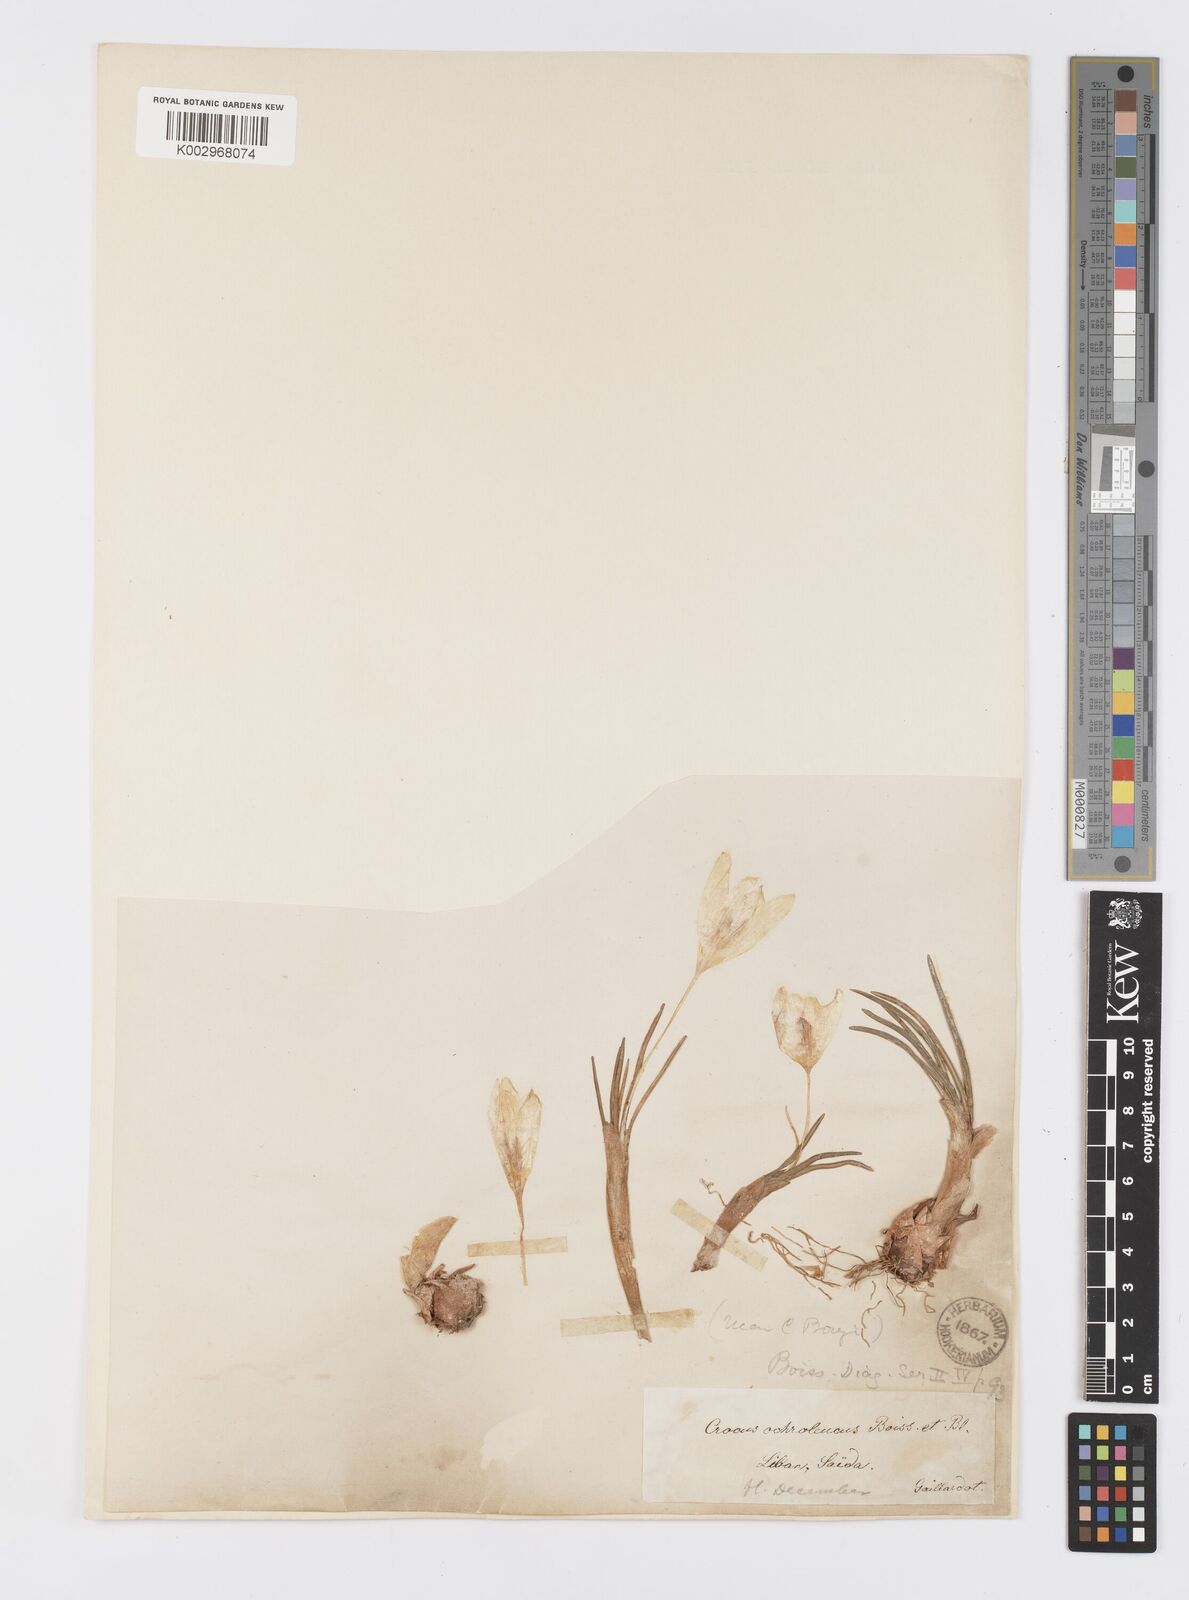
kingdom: Plantae
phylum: Tracheophyta
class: Liliopsida
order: Asparagales
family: Iridaceae
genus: Crocus
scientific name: Crocus ochroleucus
